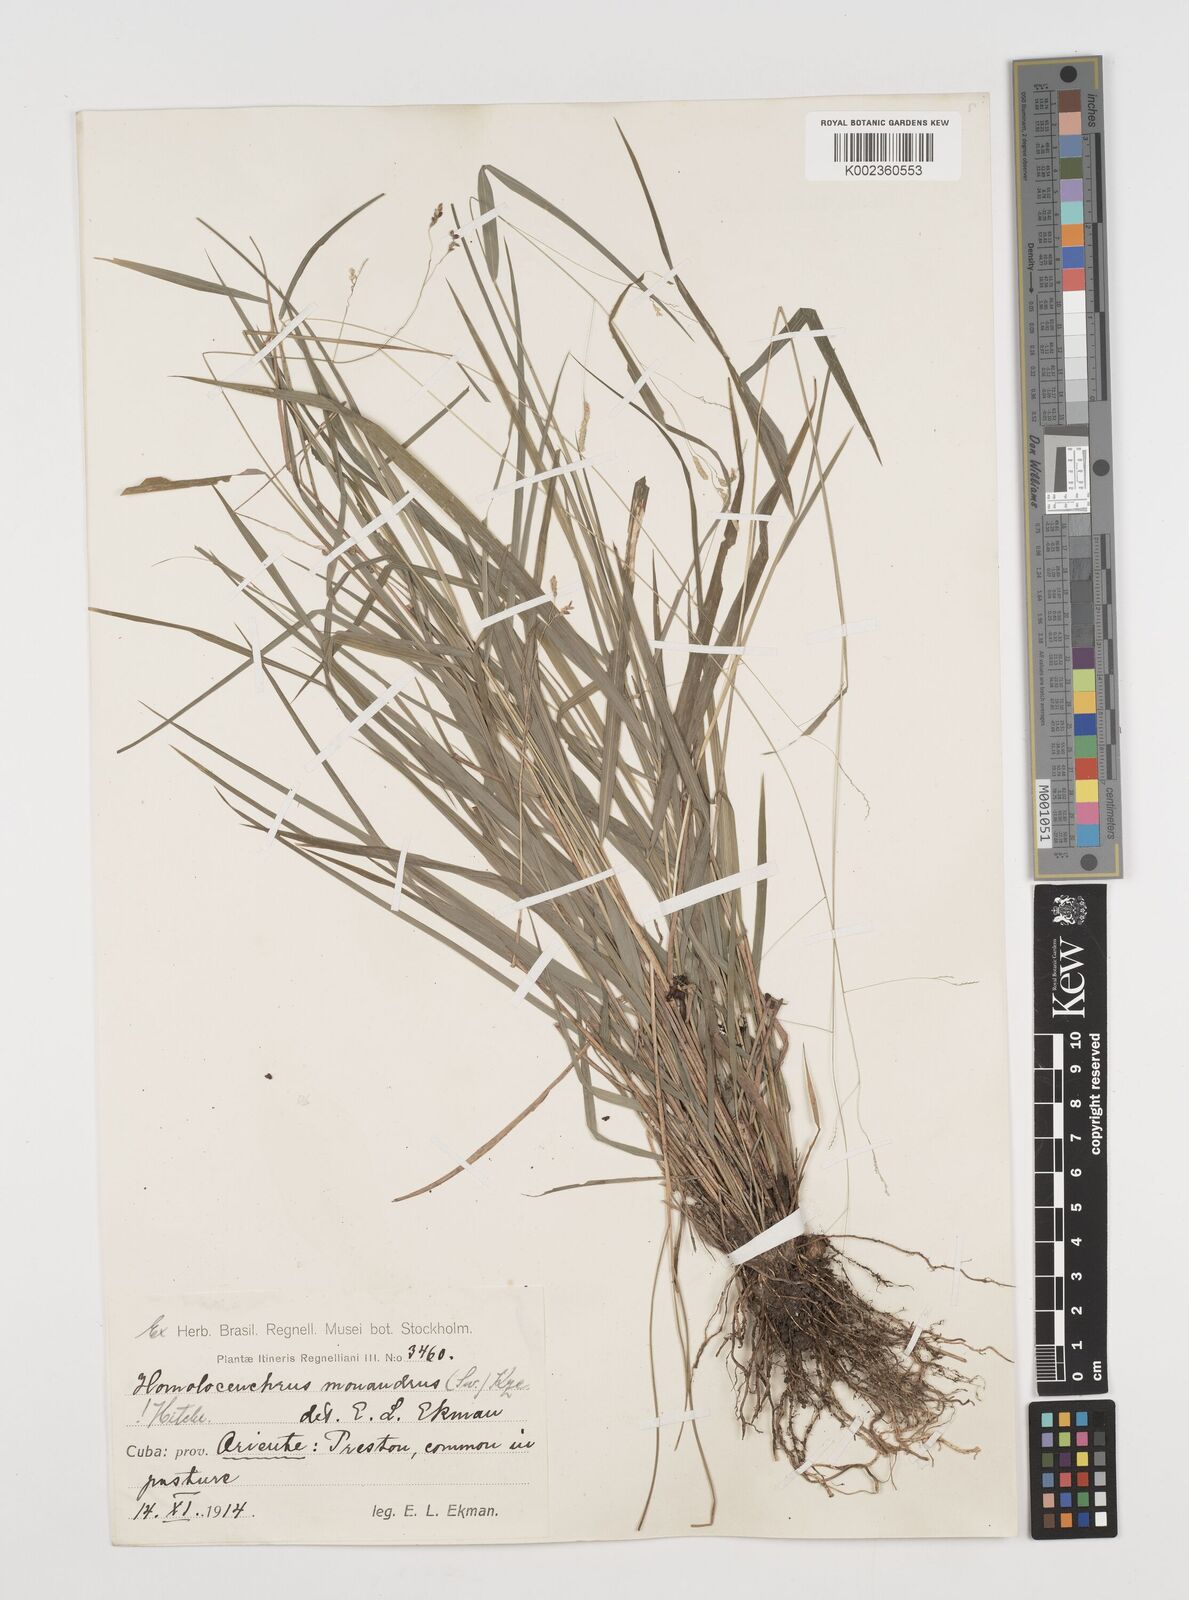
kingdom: Plantae
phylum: Tracheophyta
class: Liliopsida
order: Poales
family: Poaceae
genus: Leersia
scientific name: Leersia monandra
